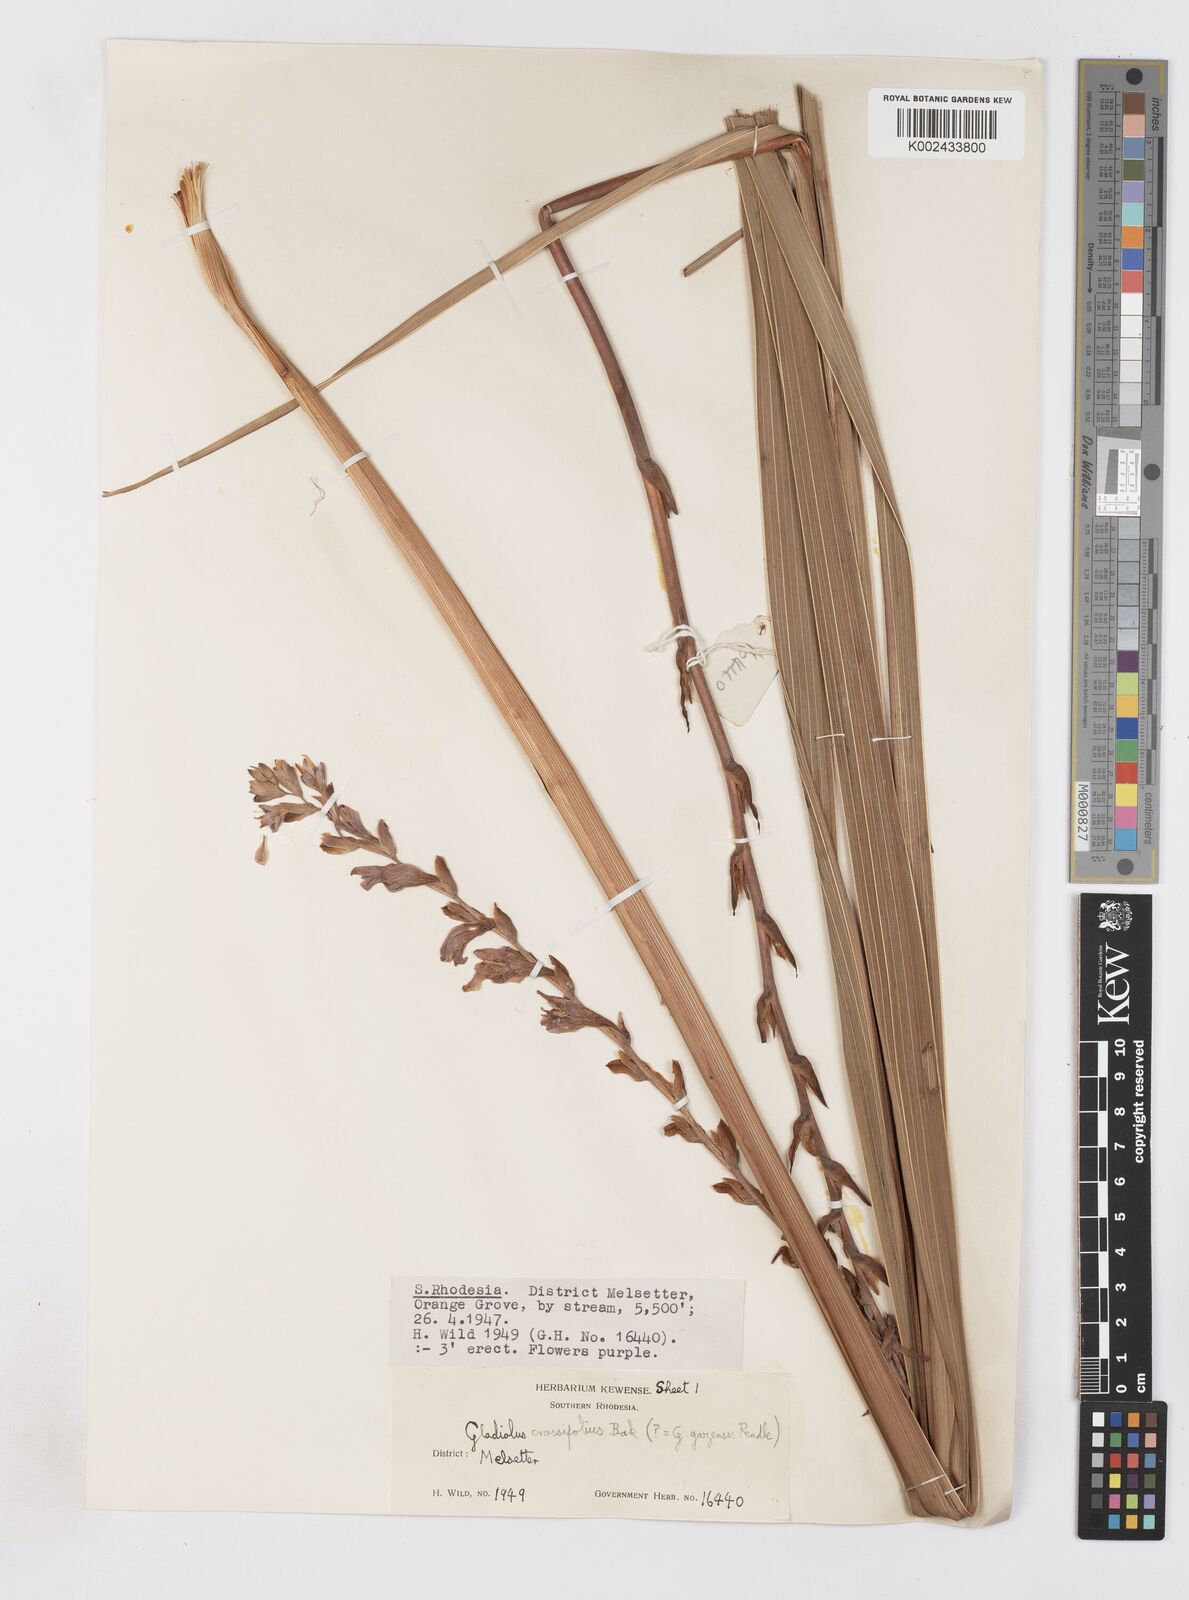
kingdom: Plantae
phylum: Tracheophyta
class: Liliopsida
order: Asparagales
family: Iridaceae
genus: Gladiolus
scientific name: Gladiolus crassifolius
